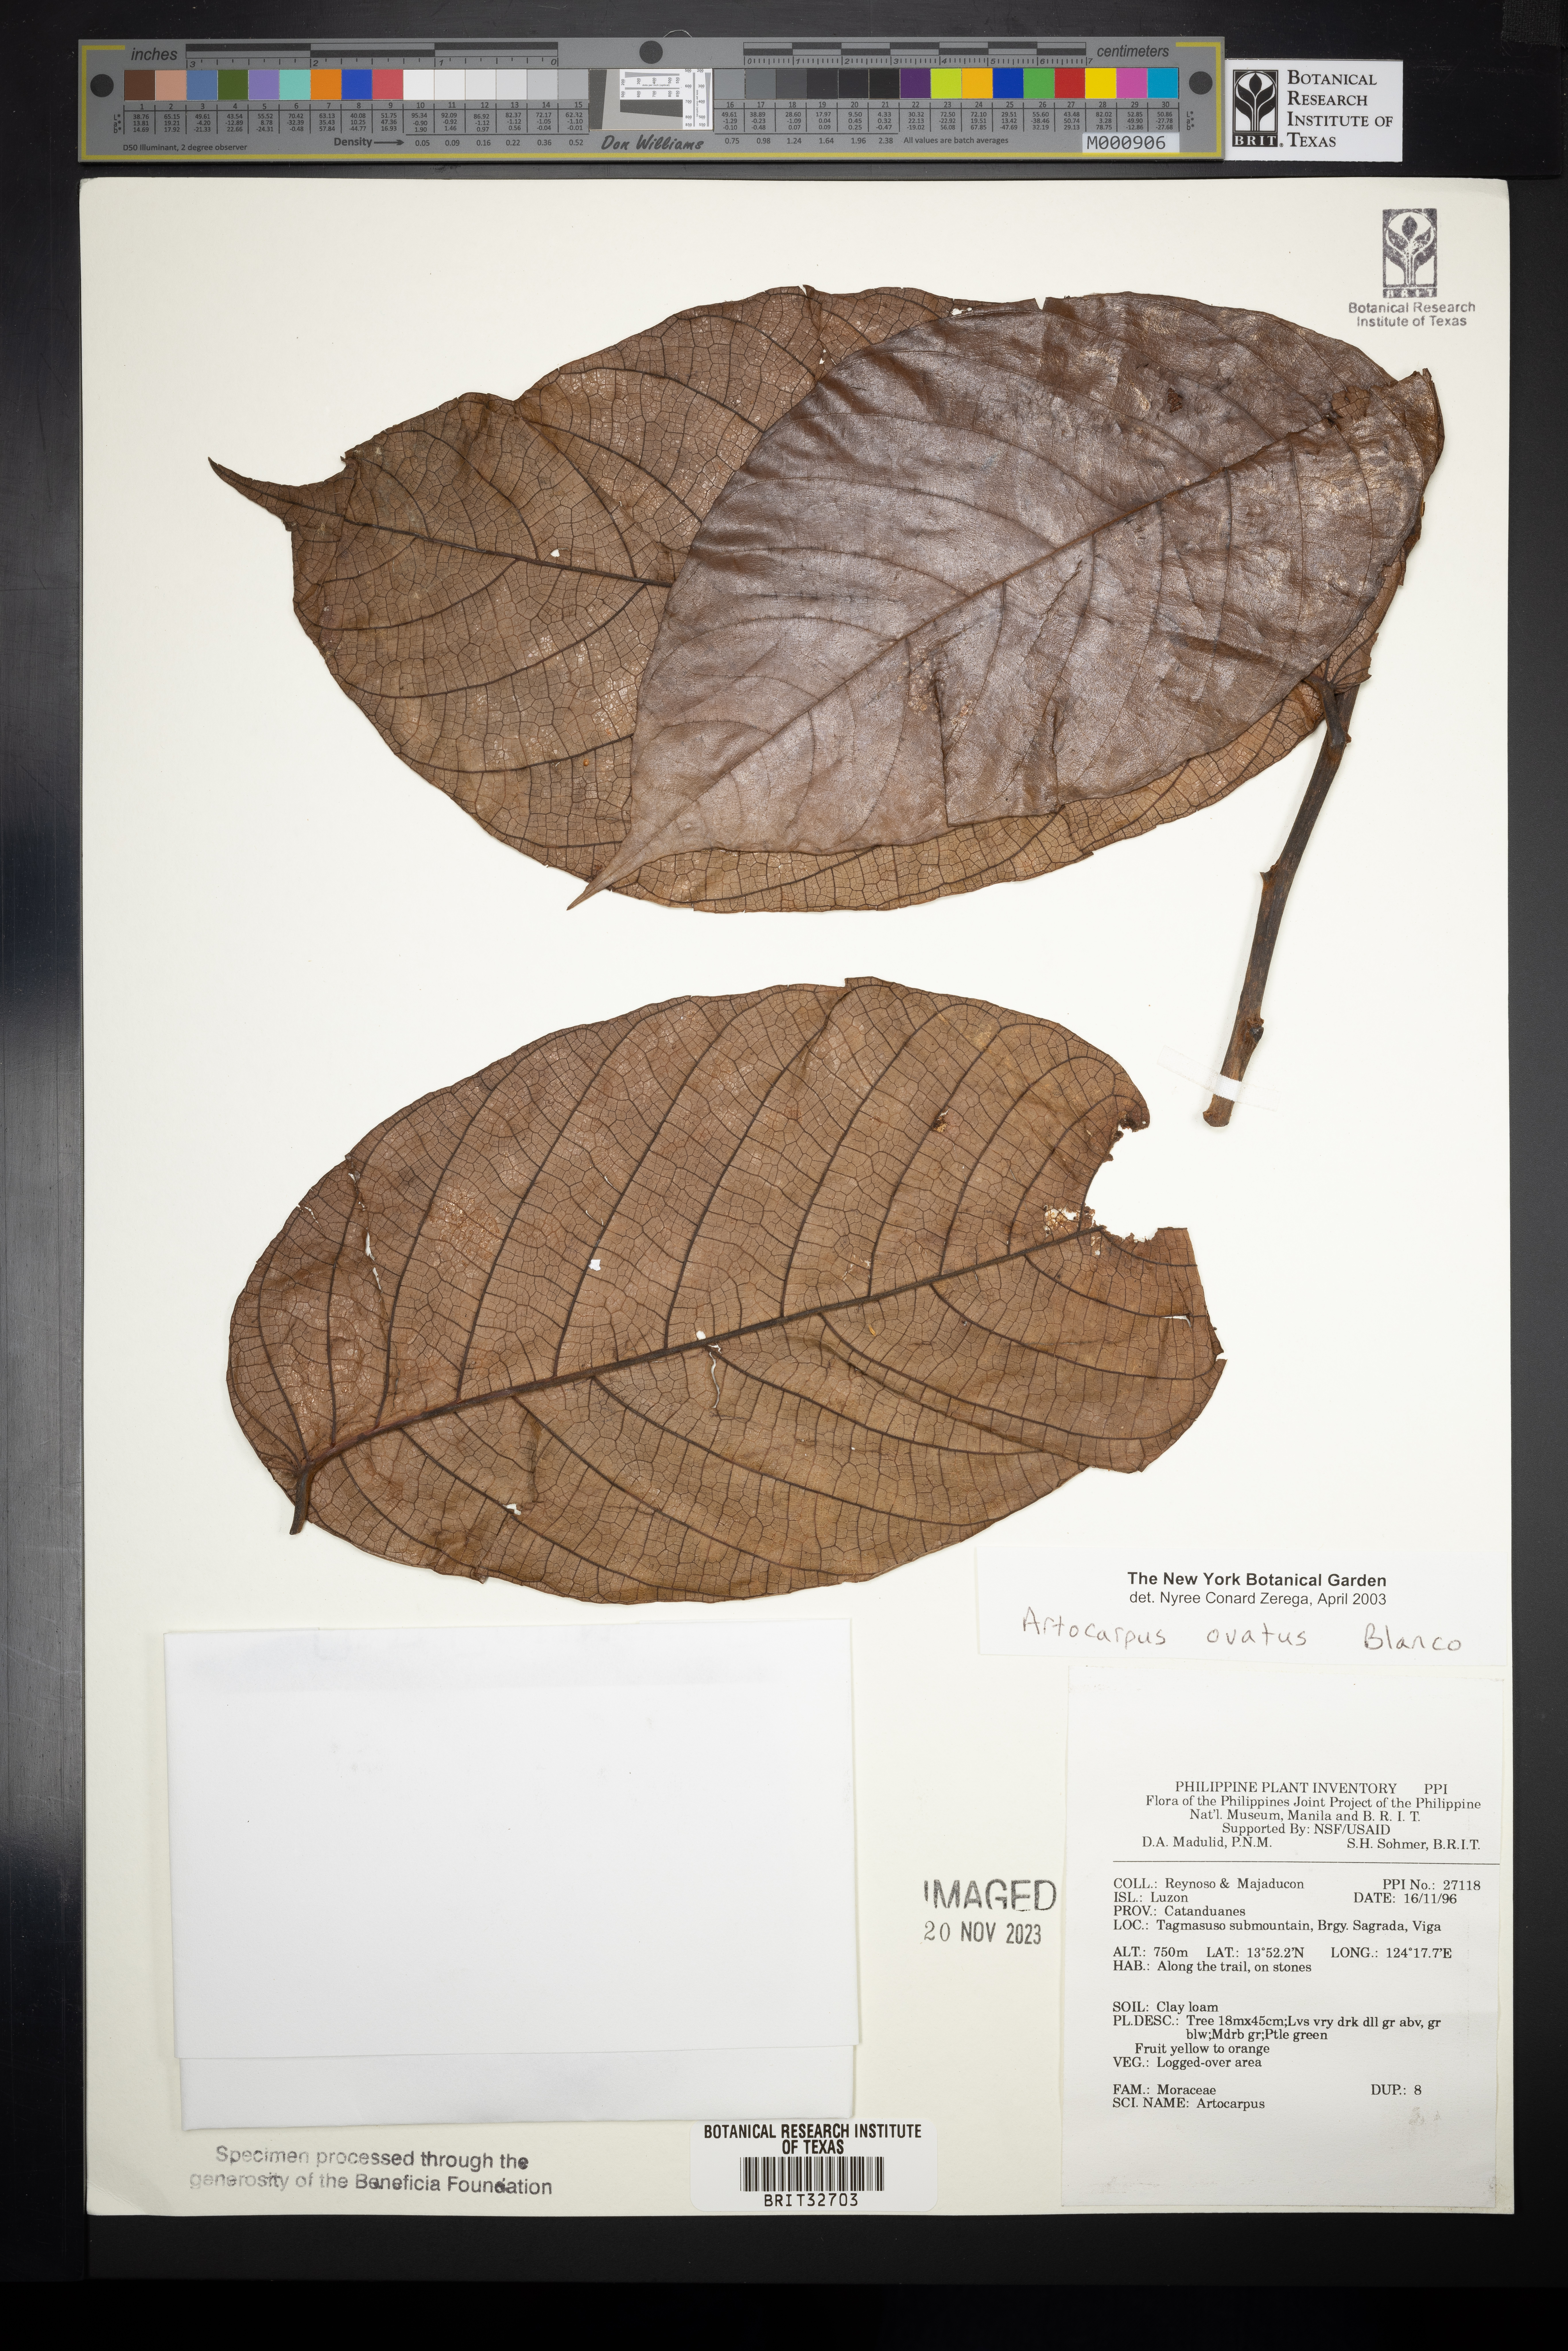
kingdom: Plantae
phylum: Tracheophyta
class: Magnoliopsida
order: Rosales
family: Moraceae
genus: Artocarpus
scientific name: Artocarpus lacucha
